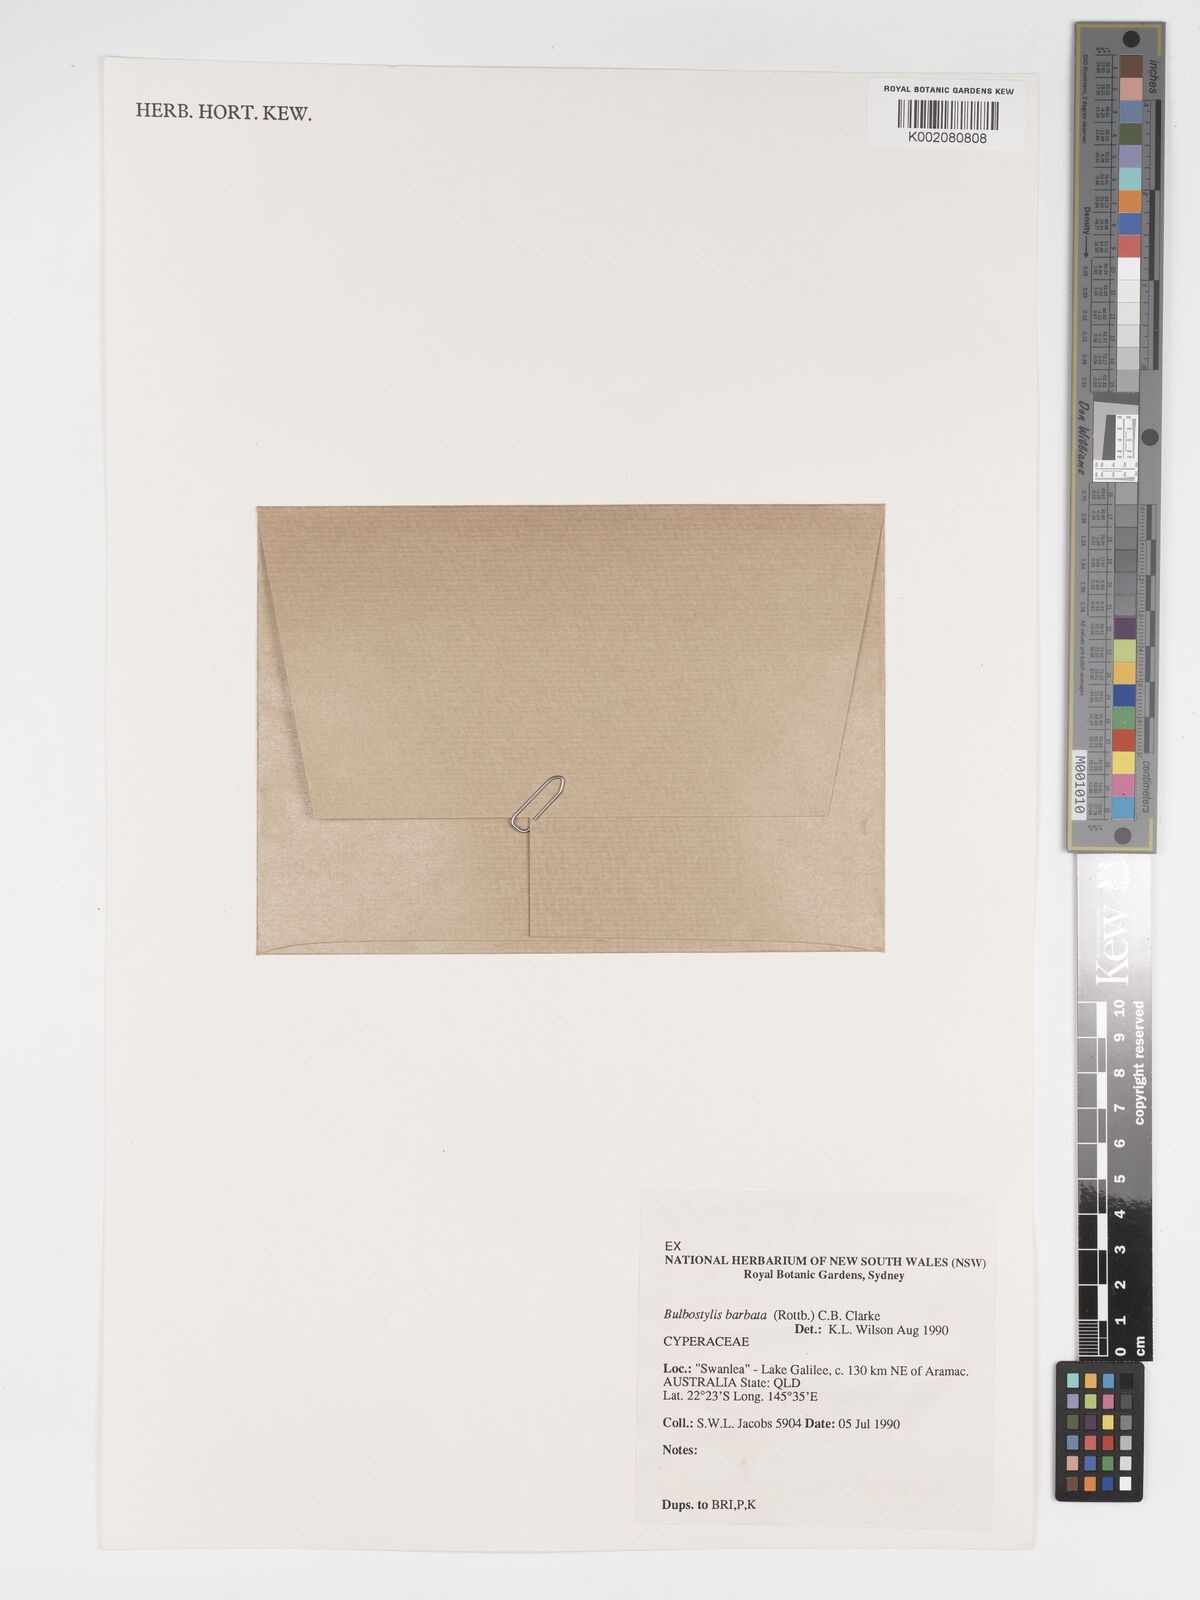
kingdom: Plantae
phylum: Tracheophyta
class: Liliopsida
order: Poales
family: Cyperaceae
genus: Bulbostylis
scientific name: Bulbostylis barbata
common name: Watergrass
